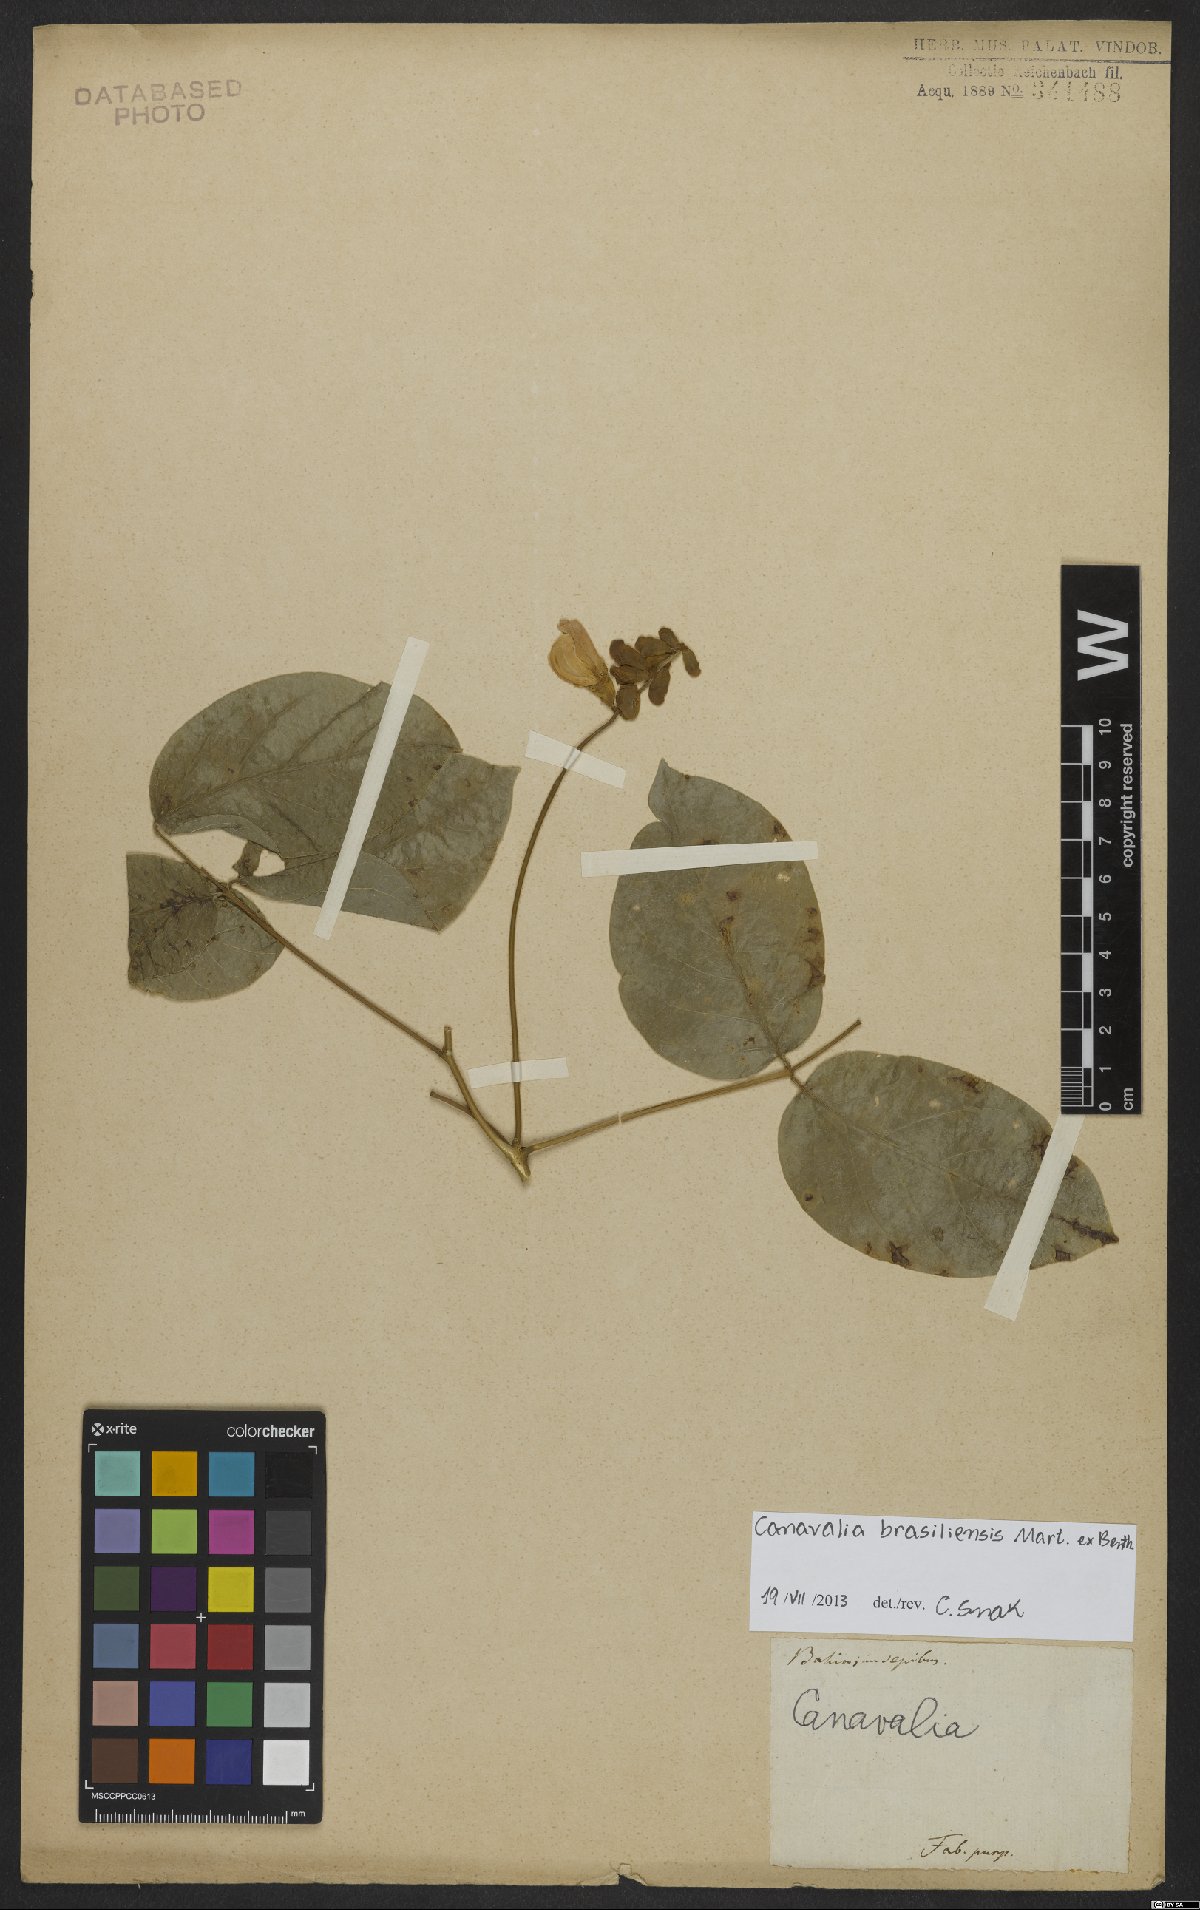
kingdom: Plantae
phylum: Tracheophyta
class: Magnoliopsida
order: Fabales
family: Fabaceae
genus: Canavalia
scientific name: Canavalia brasiliensis
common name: Barbicou-bean
